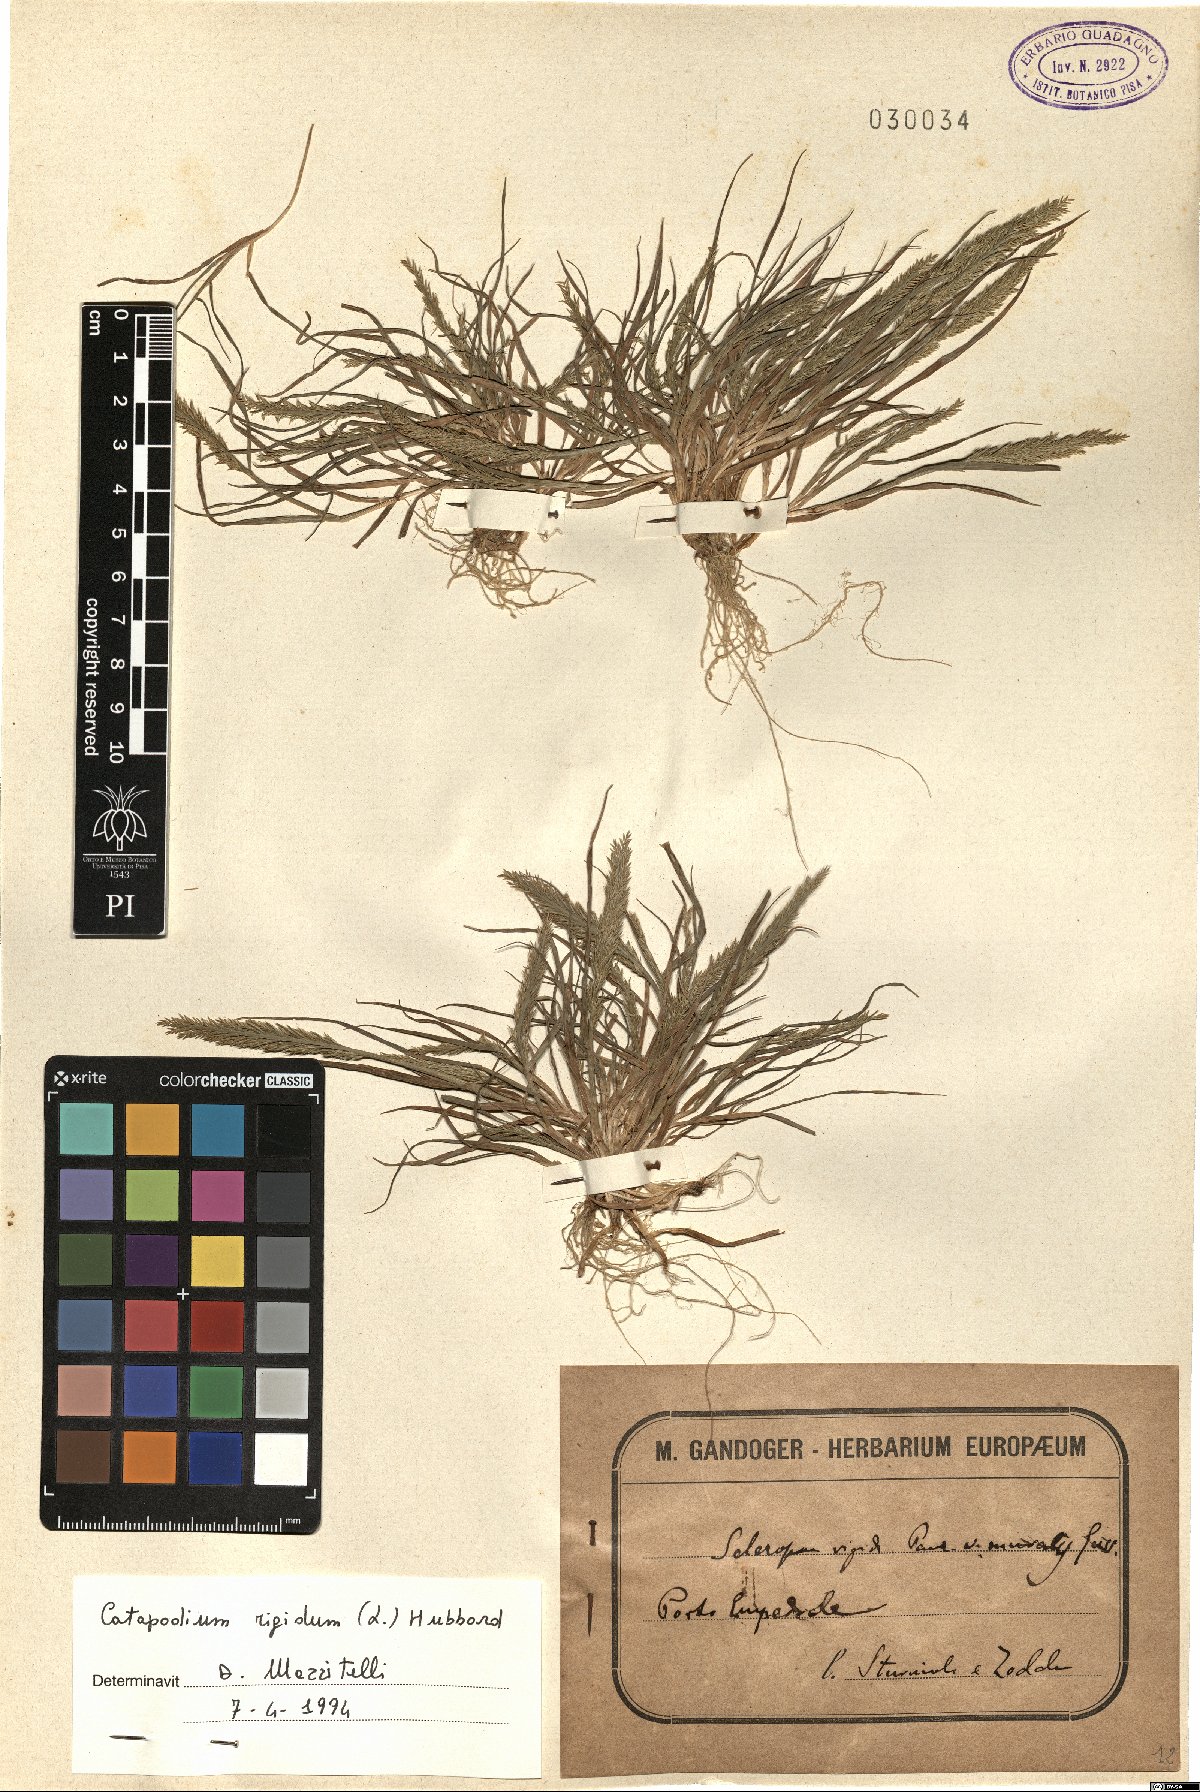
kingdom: Plantae
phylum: Tracheophyta
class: Liliopsida
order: Poales
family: Poaceae
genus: Catapodium
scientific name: Catapodium rigidum
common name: Fern-grass
